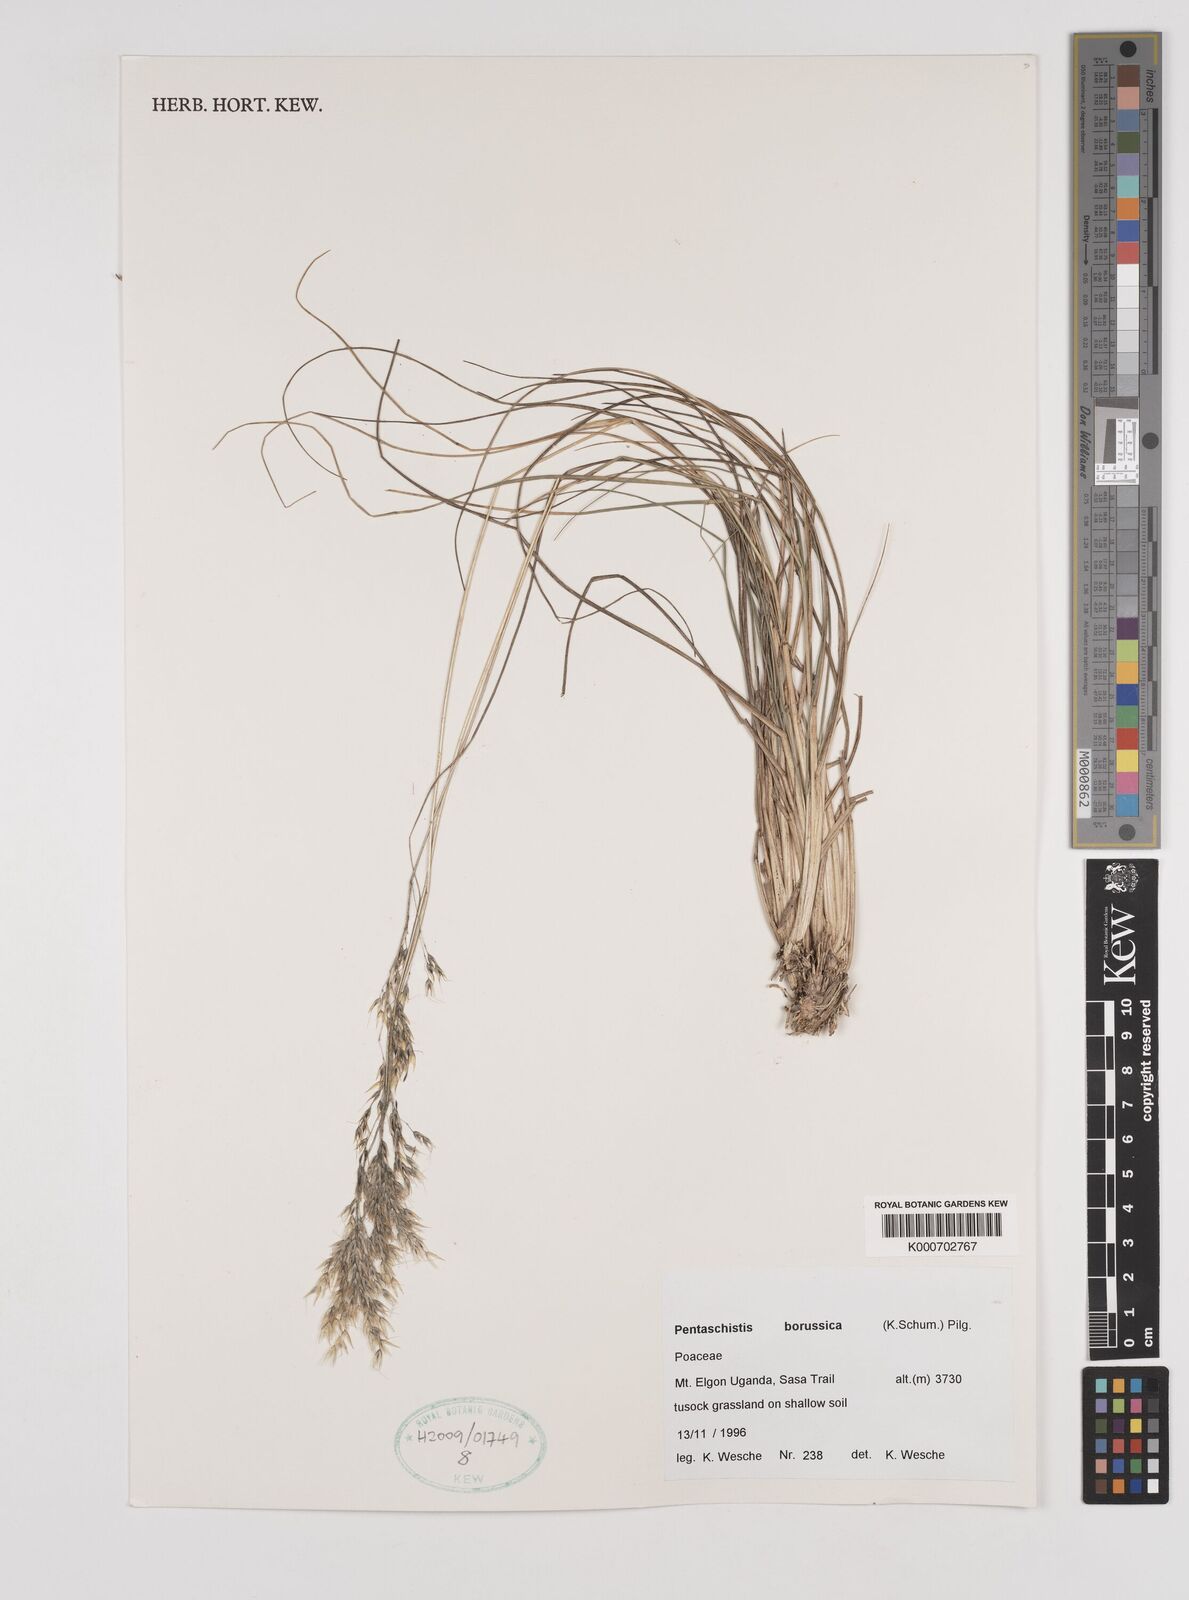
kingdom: Plantae
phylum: Tracheophyta
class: Liliopsida
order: Poales
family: Poaceae
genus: Pentameris
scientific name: Pentameris borussica
